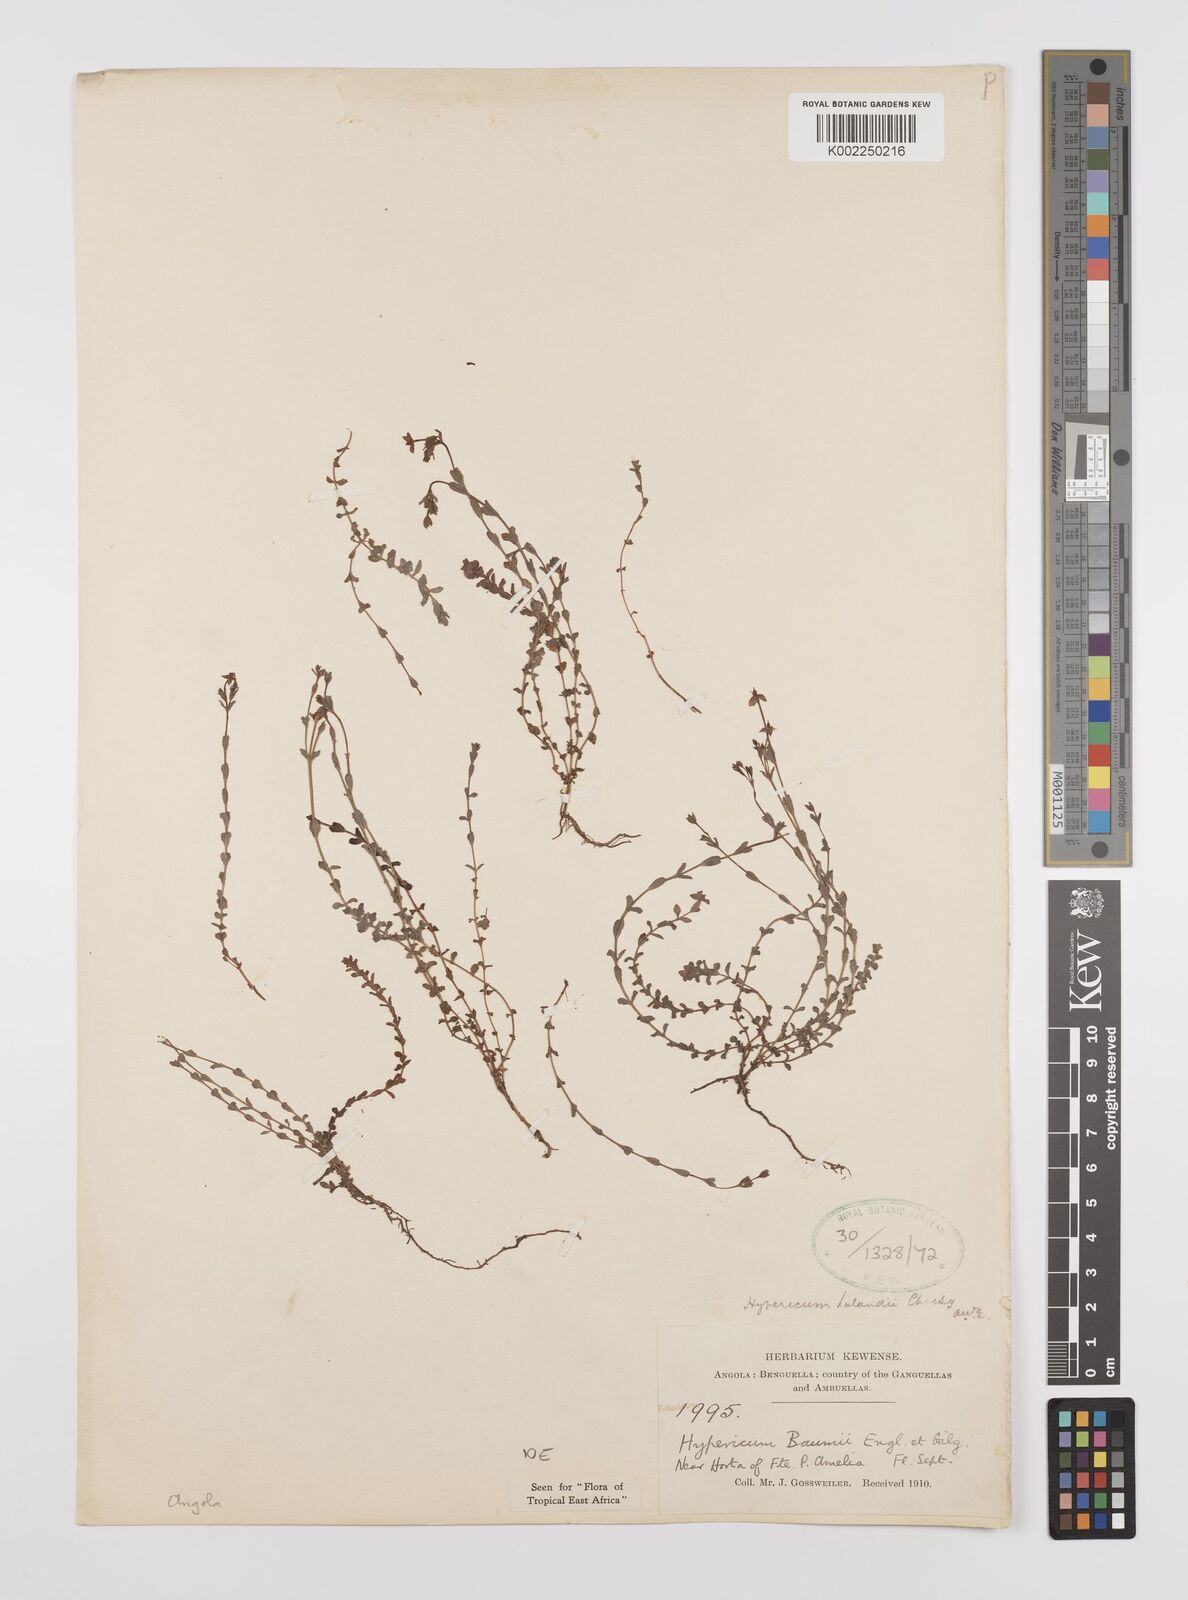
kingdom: Plantae
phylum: Tracheophyta
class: Magnoliopsida
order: Malpighiales
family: Hypericaceae
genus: Hypericum
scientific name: Hypericum lalandii
